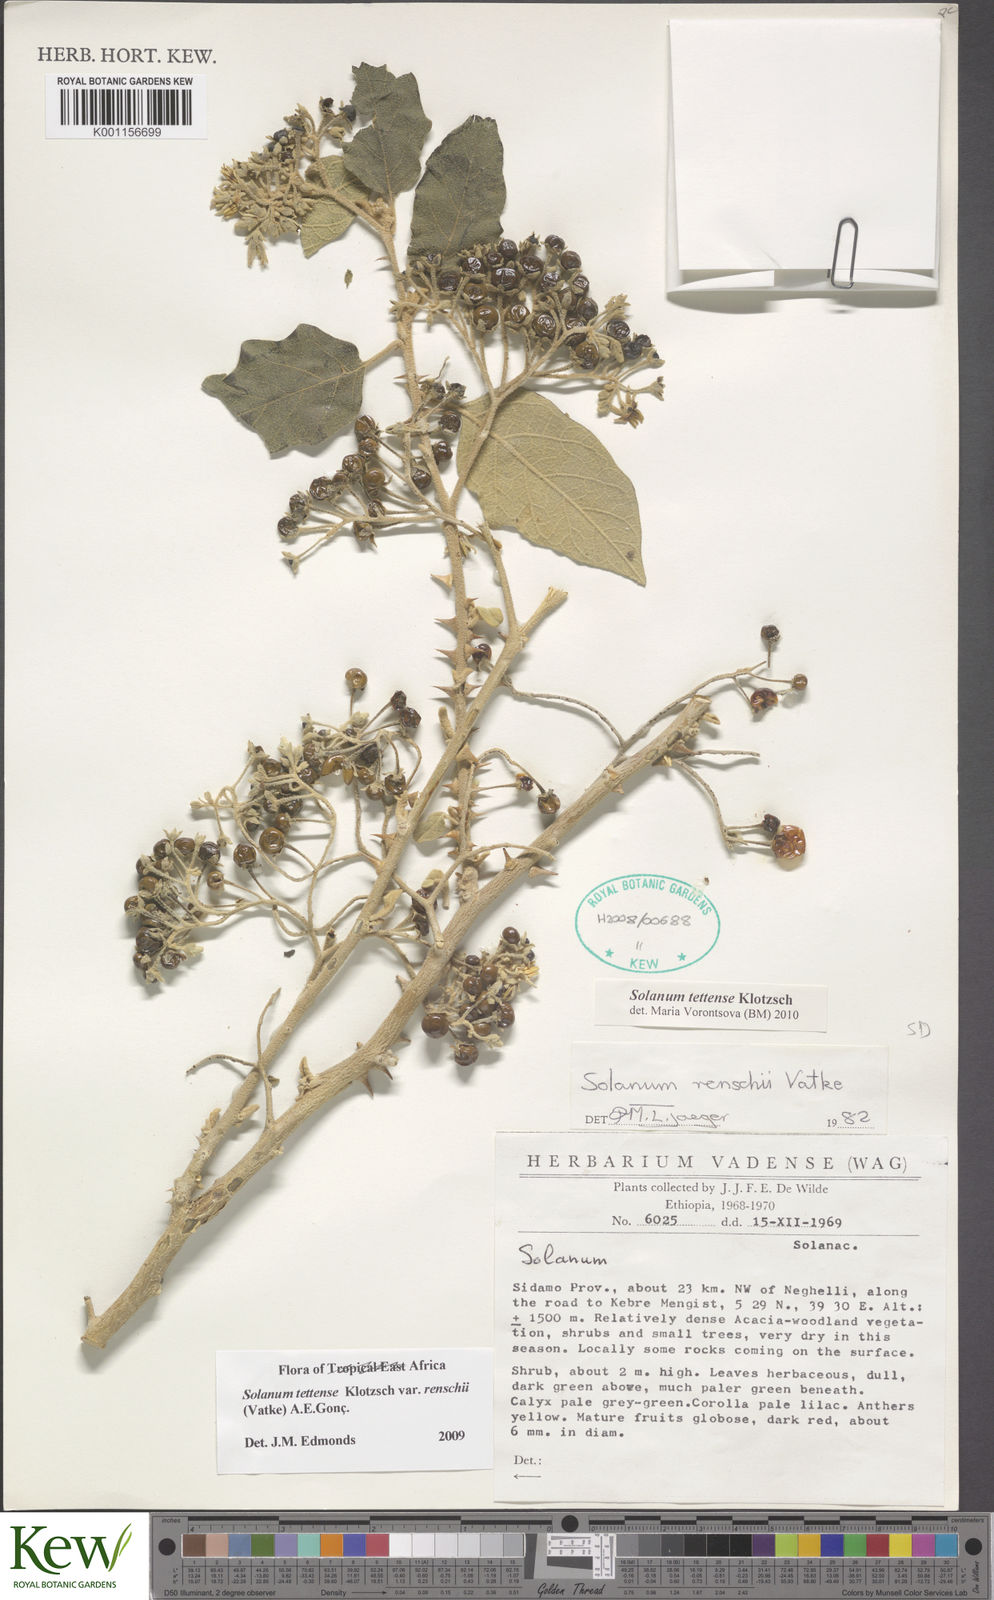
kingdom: Plantae
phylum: Tracheophyta
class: Magnoliopsida
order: Solanales
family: Solanaceae
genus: Solanum
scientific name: Solanum tettense
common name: Mozambique bitter apple
